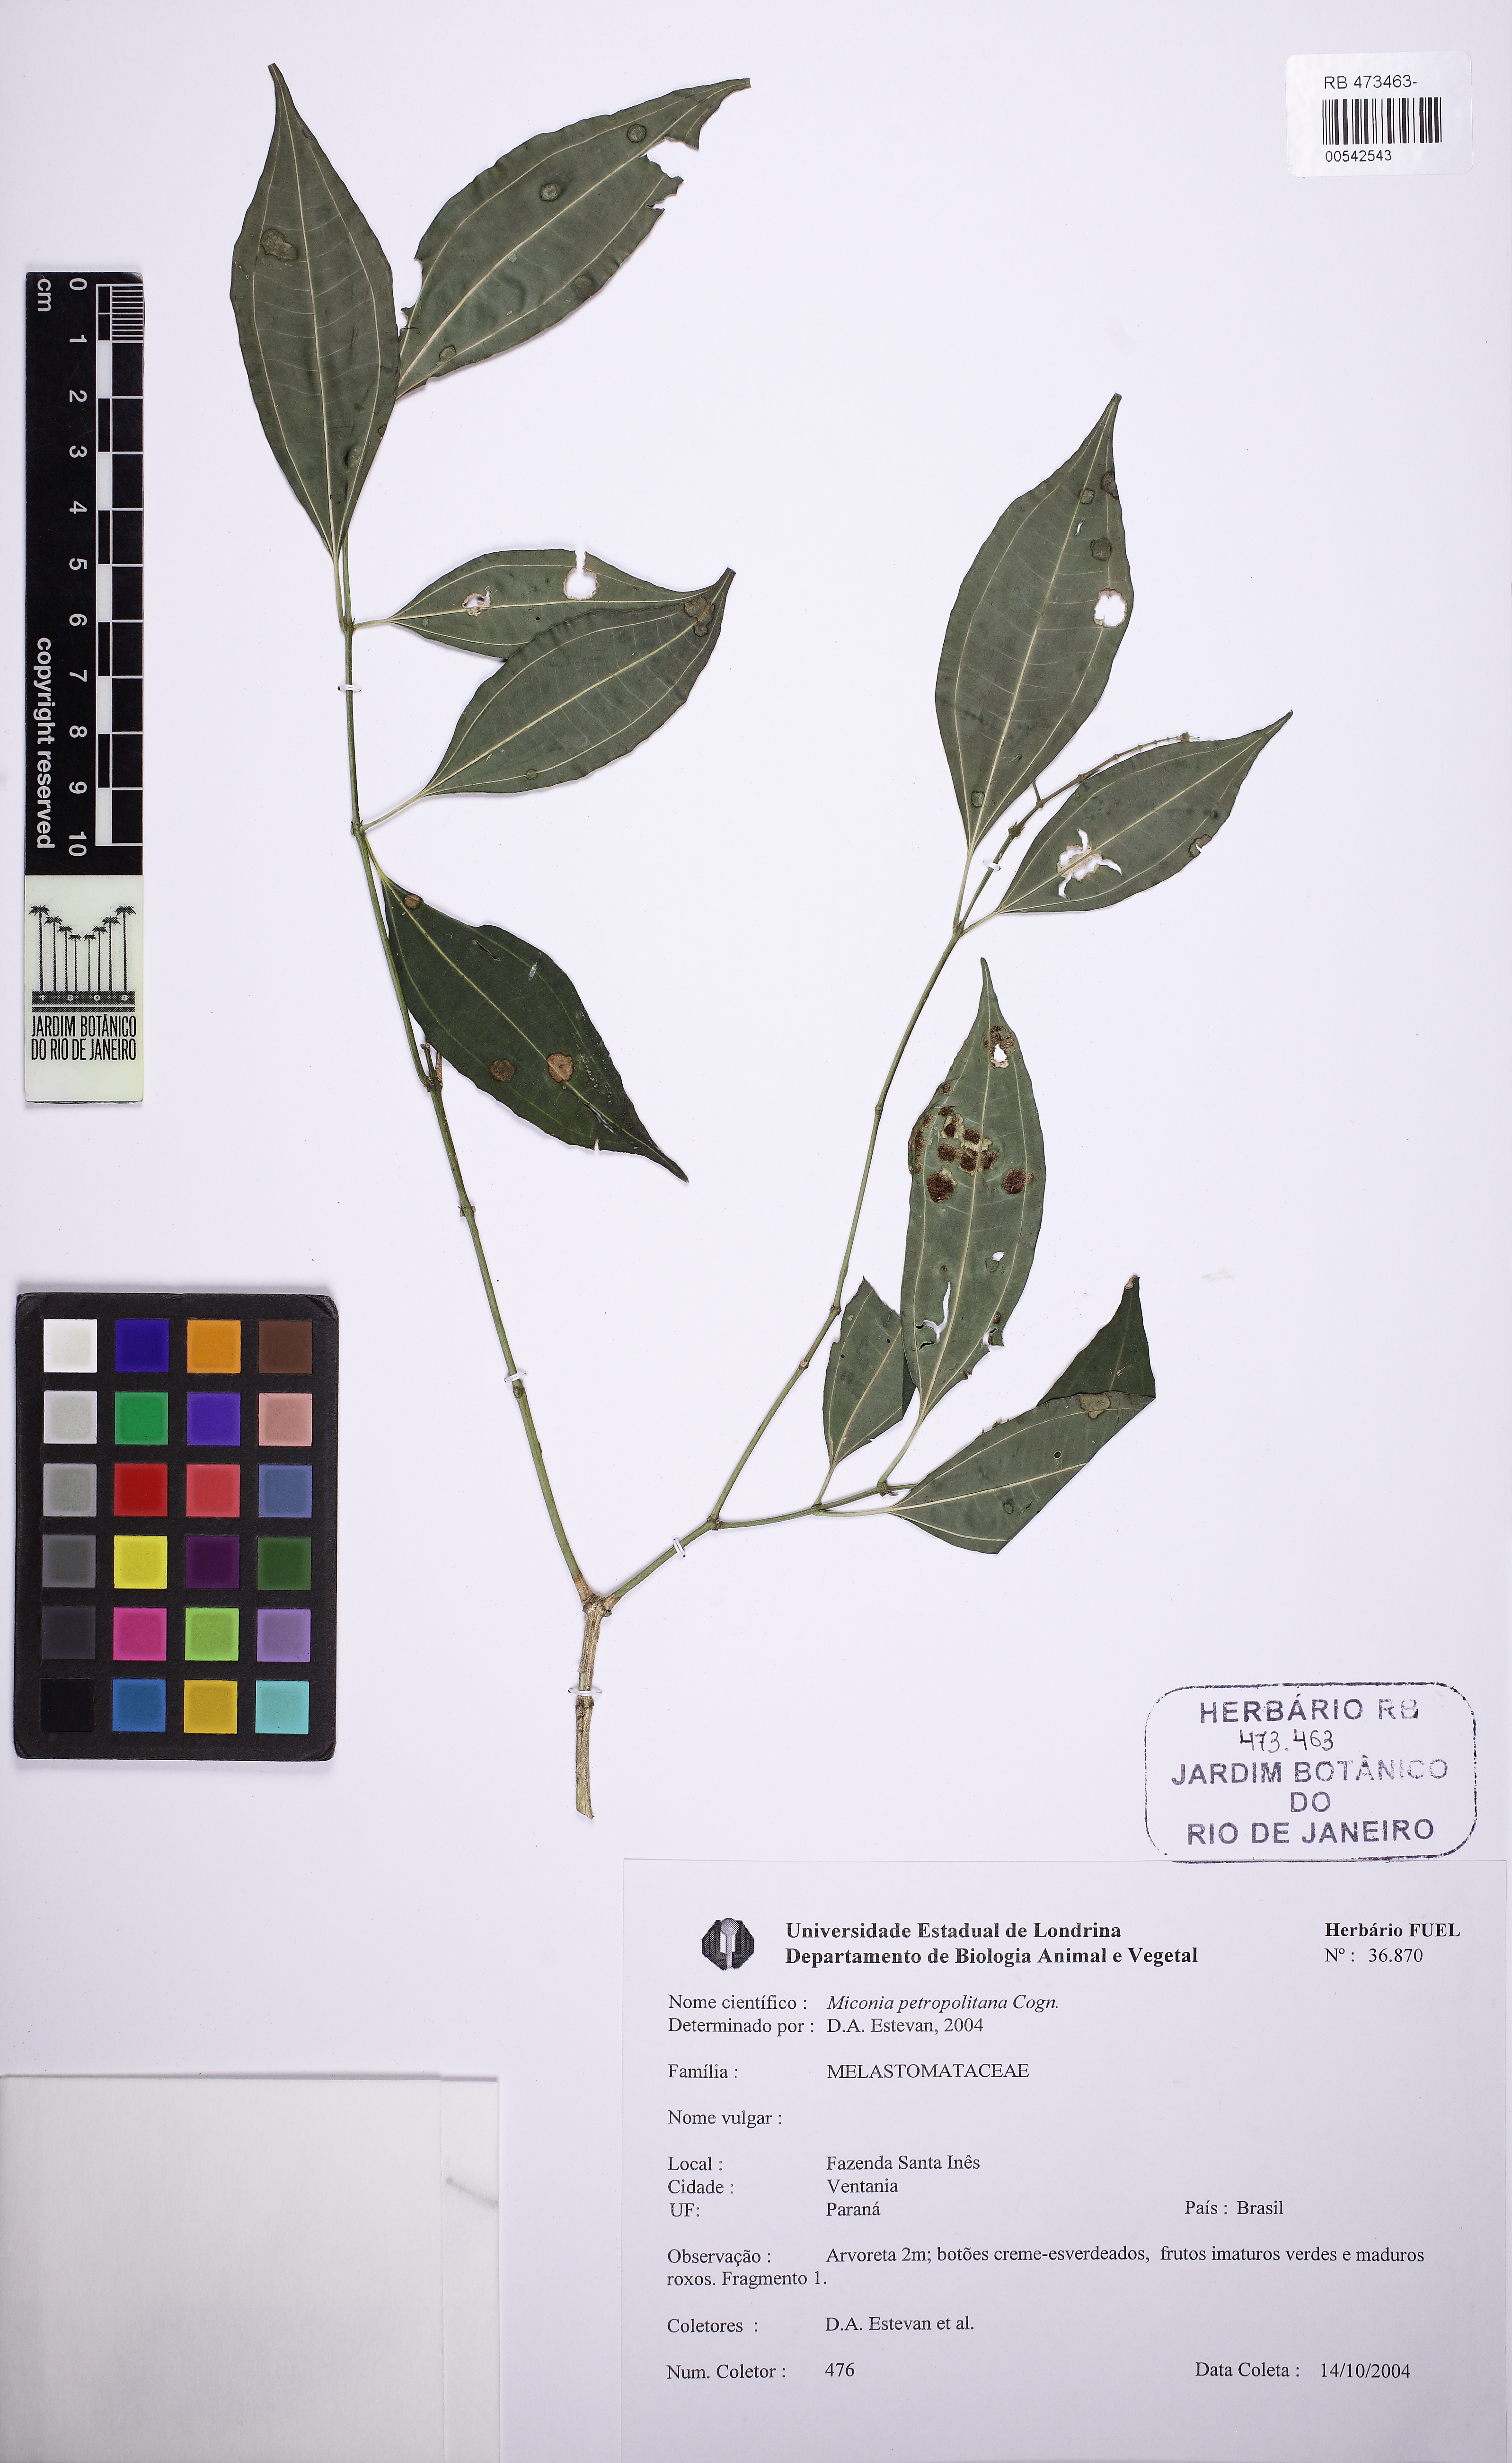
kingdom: Plantae
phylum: Tracheophyta
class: Magnoliopsida
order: Myrtales
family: Melastomataceae
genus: Miconia
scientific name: Miconia petropolitana
